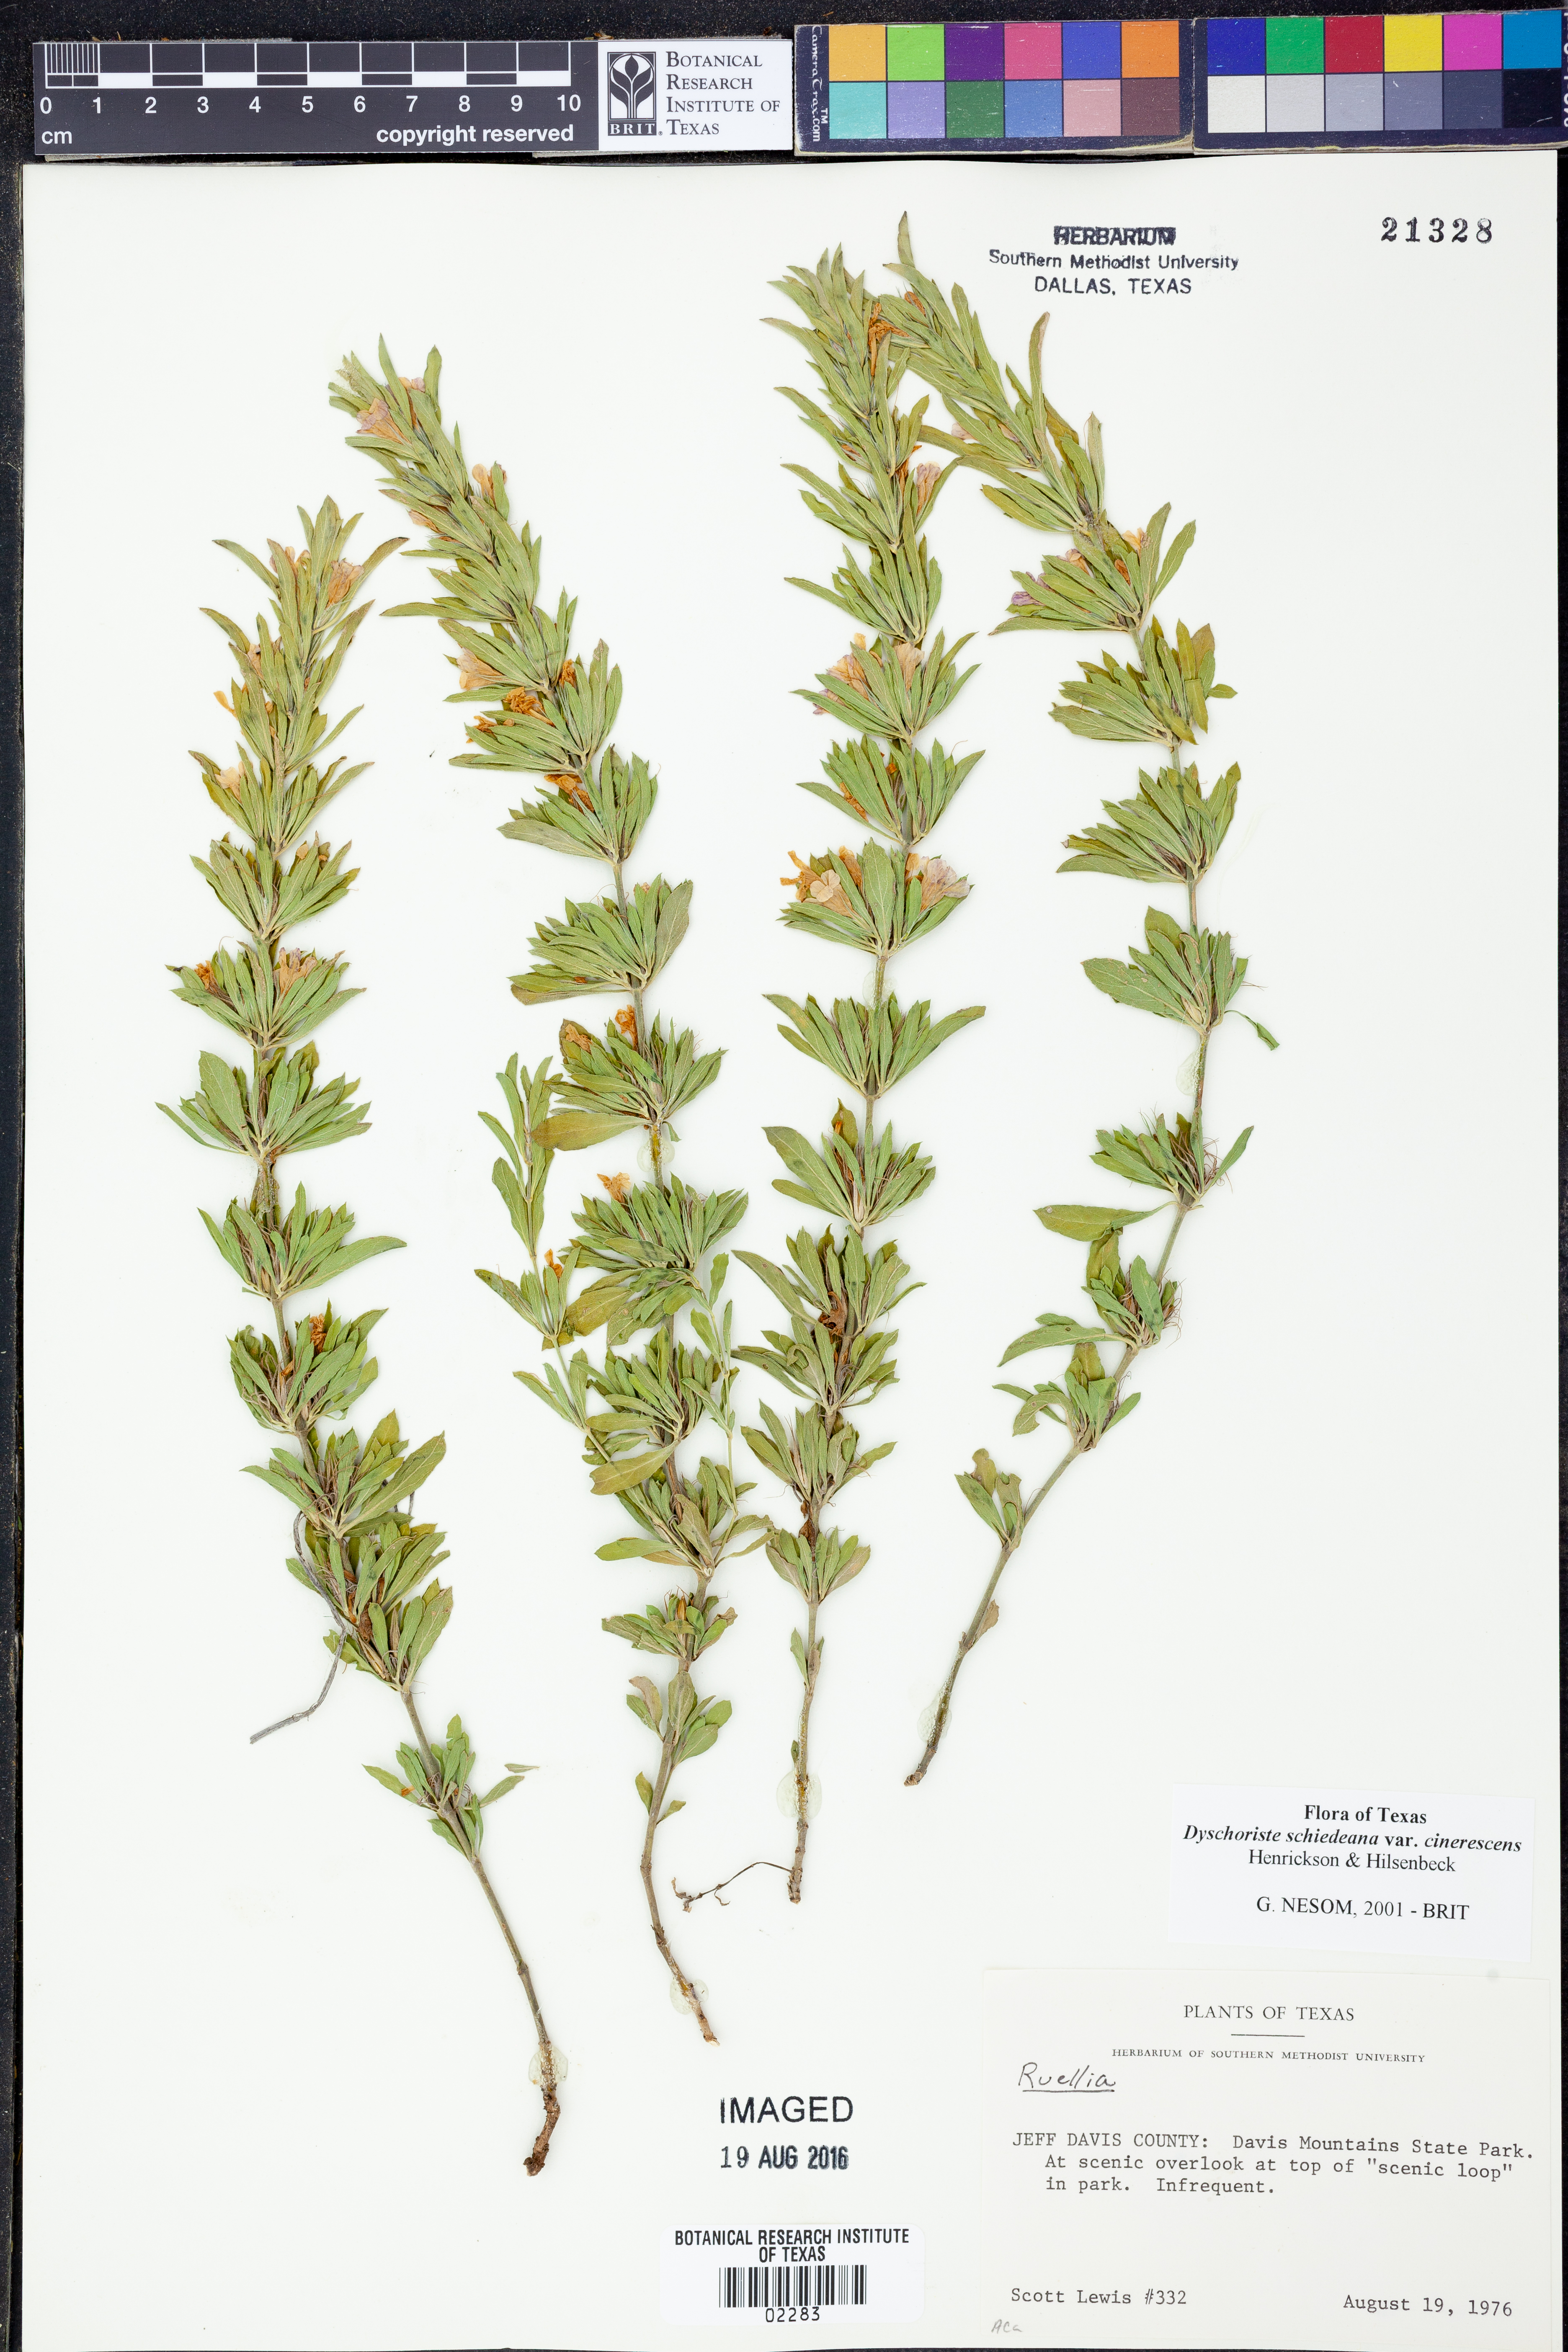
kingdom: Plantae
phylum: Tracheophyta
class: Magnoliopsida
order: Lamiales
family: Acanthaceae
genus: Dyschoriste
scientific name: Dyschoriste cinerascens
